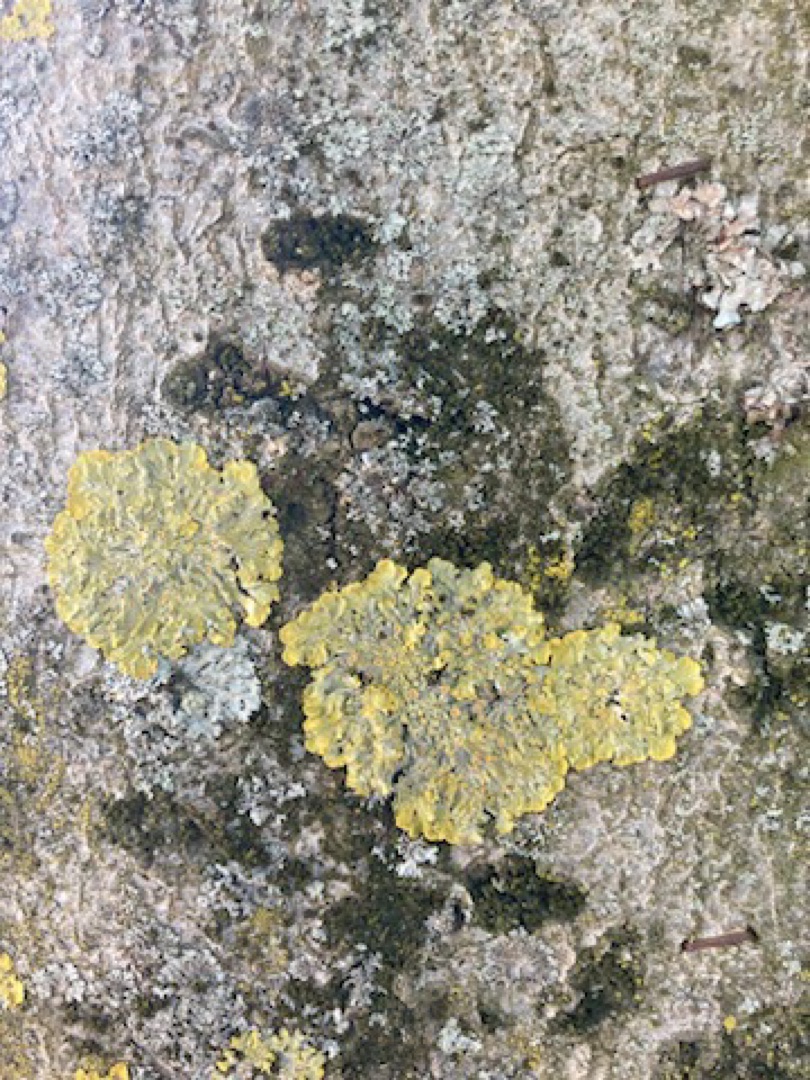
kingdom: Fungi
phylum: Ascomycota
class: Lecanoromycetes
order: Teloschistales
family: Teloschistaceae
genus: Xanthoria
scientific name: Xanthoria parietina
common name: Almindelig væggelav
